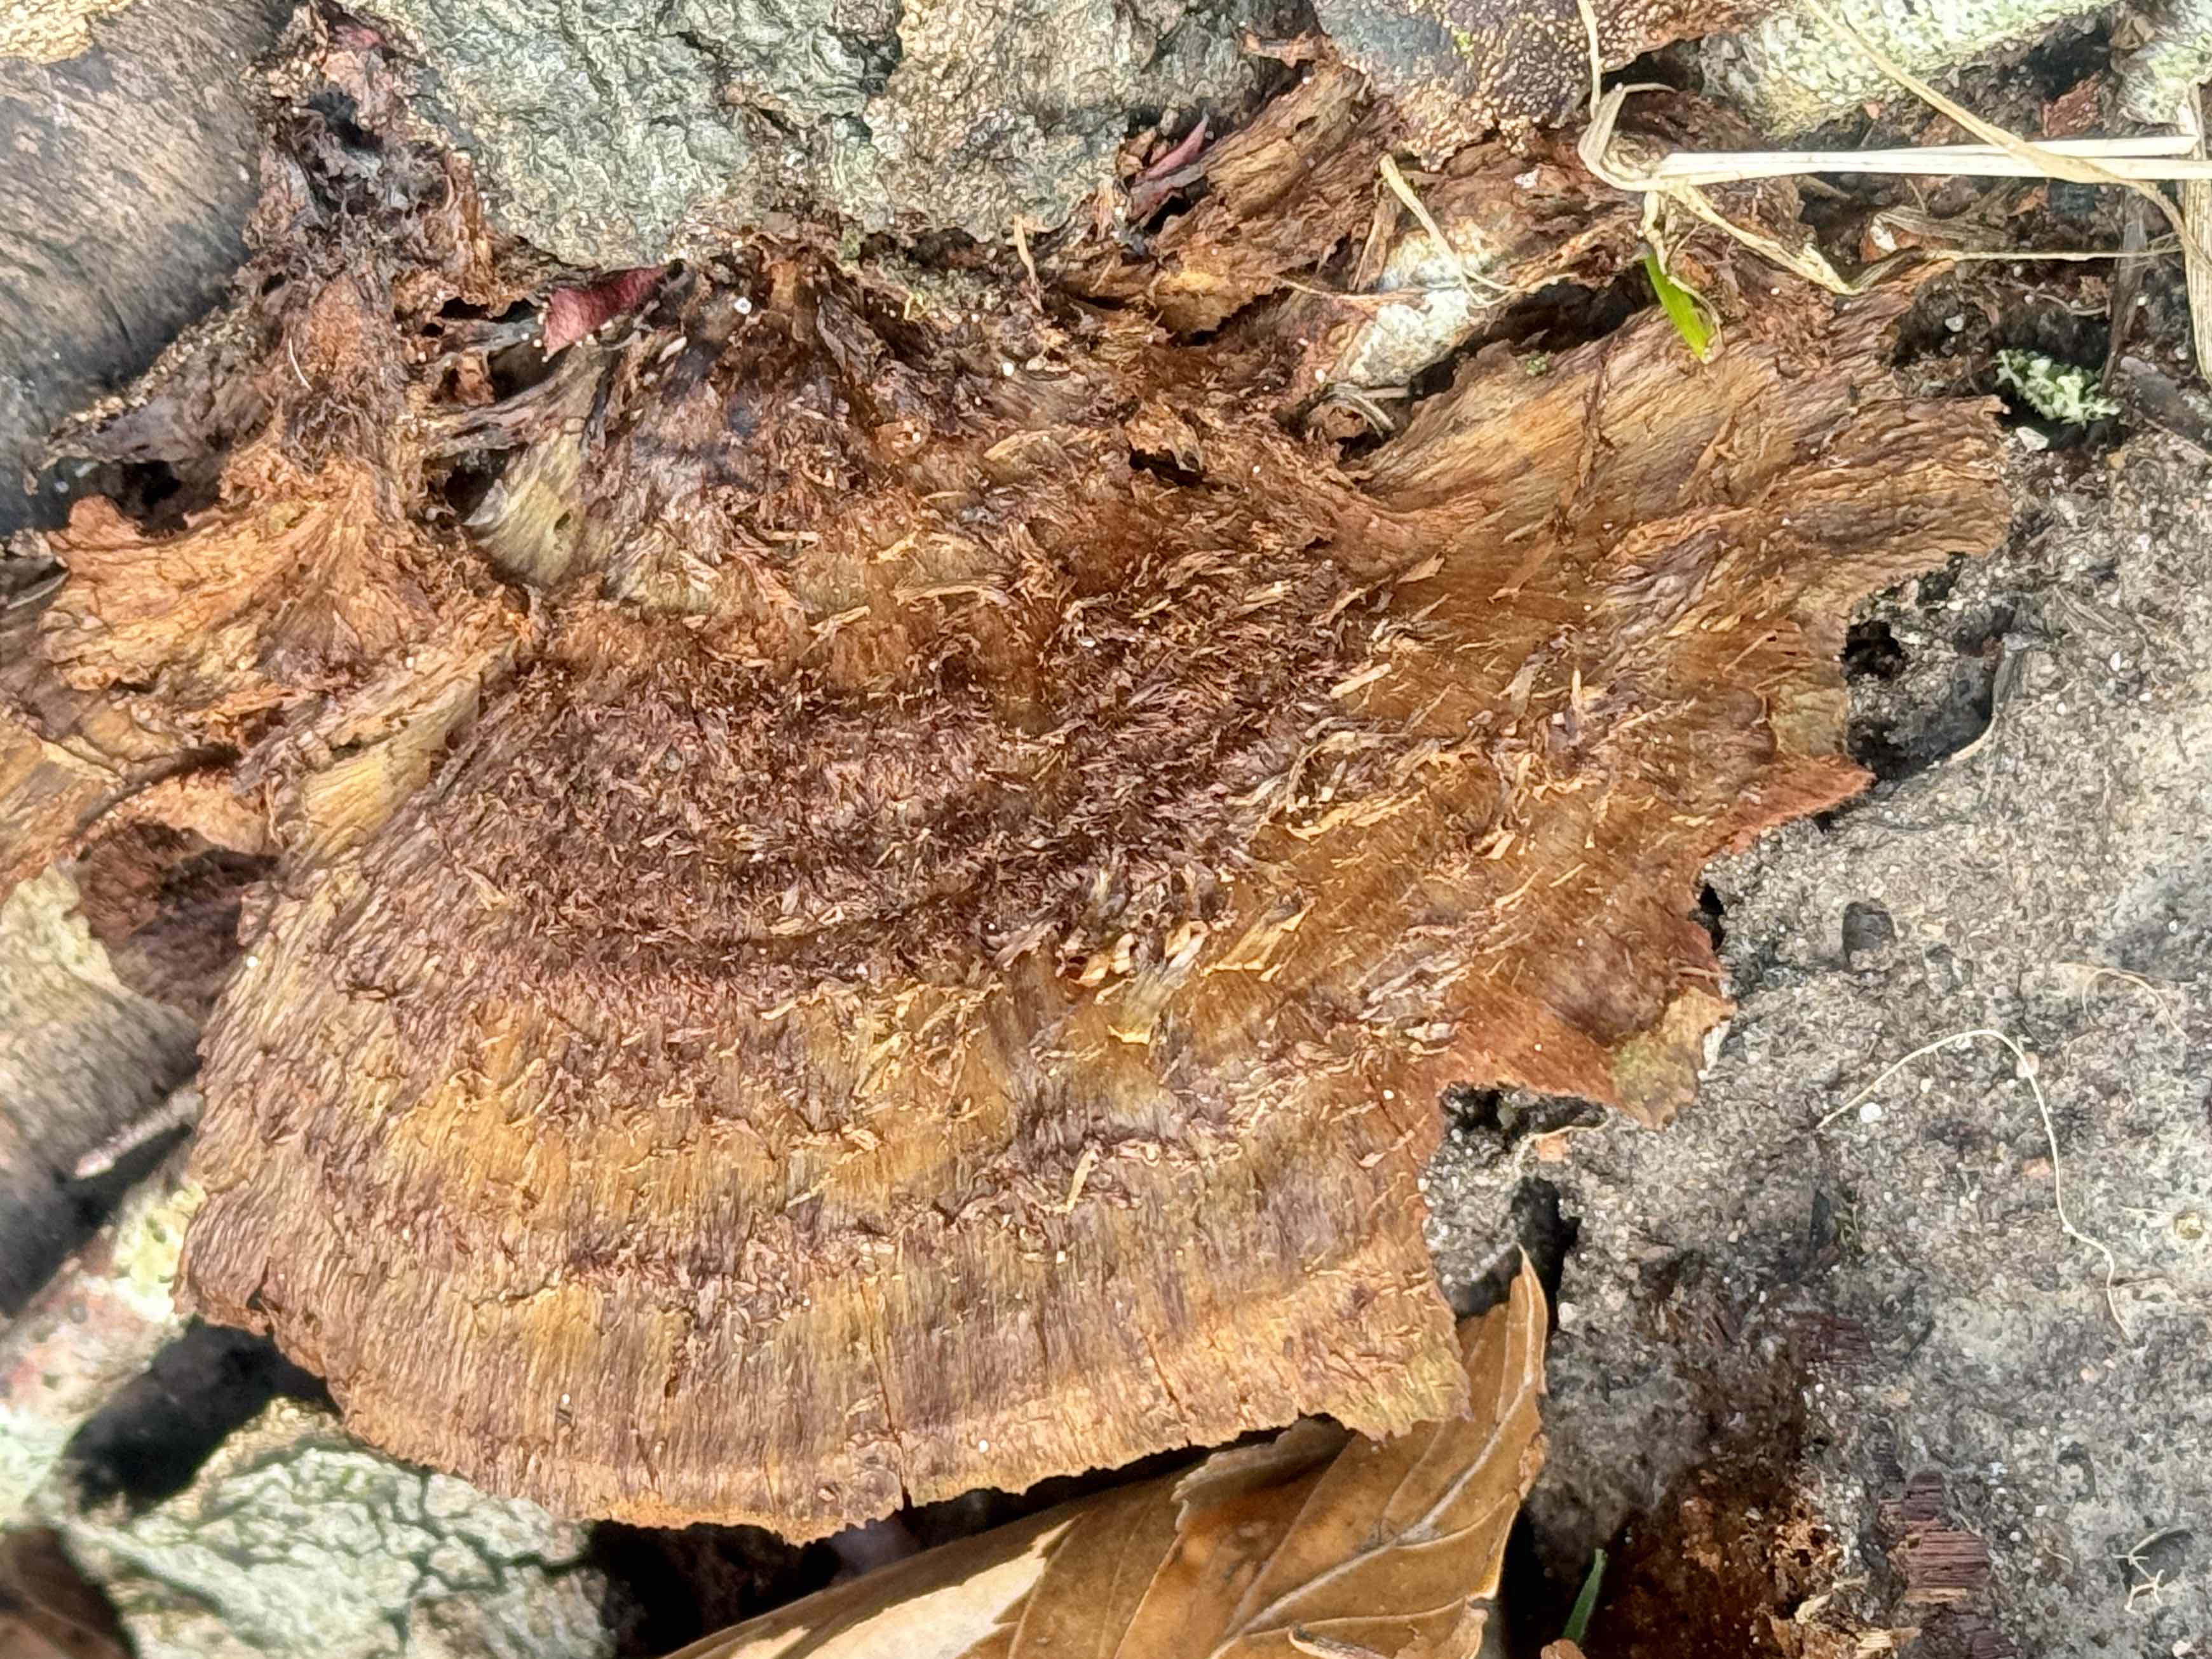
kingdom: Fungi
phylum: Basidiomycota
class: Agaricomycetes
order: Hymenochaetales
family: Hymenochaetaceae
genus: Inonotus
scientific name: Inonotus cuticularis
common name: kroghåret spejlporesvamp
